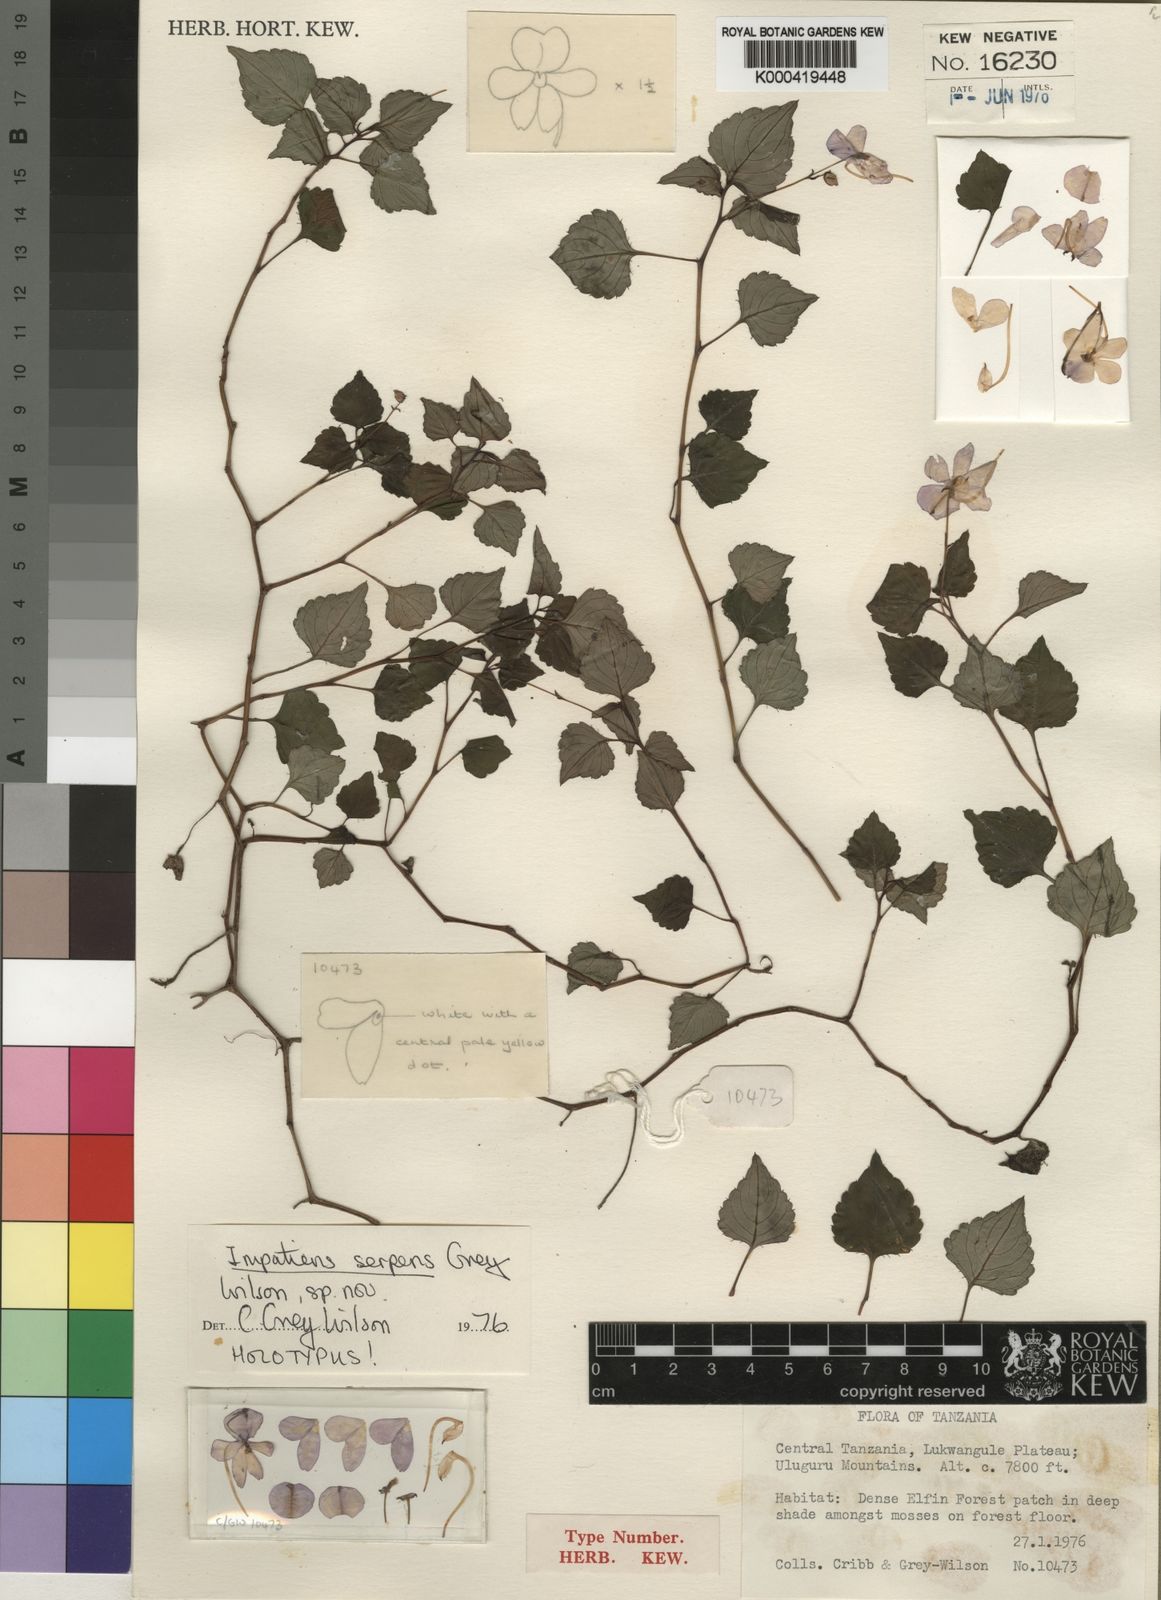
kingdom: Plantae
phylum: Tracheophyta
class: Magnoliopsida
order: Ericales
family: Balsaminaceae
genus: Impatiens
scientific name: Impatiens serpens
